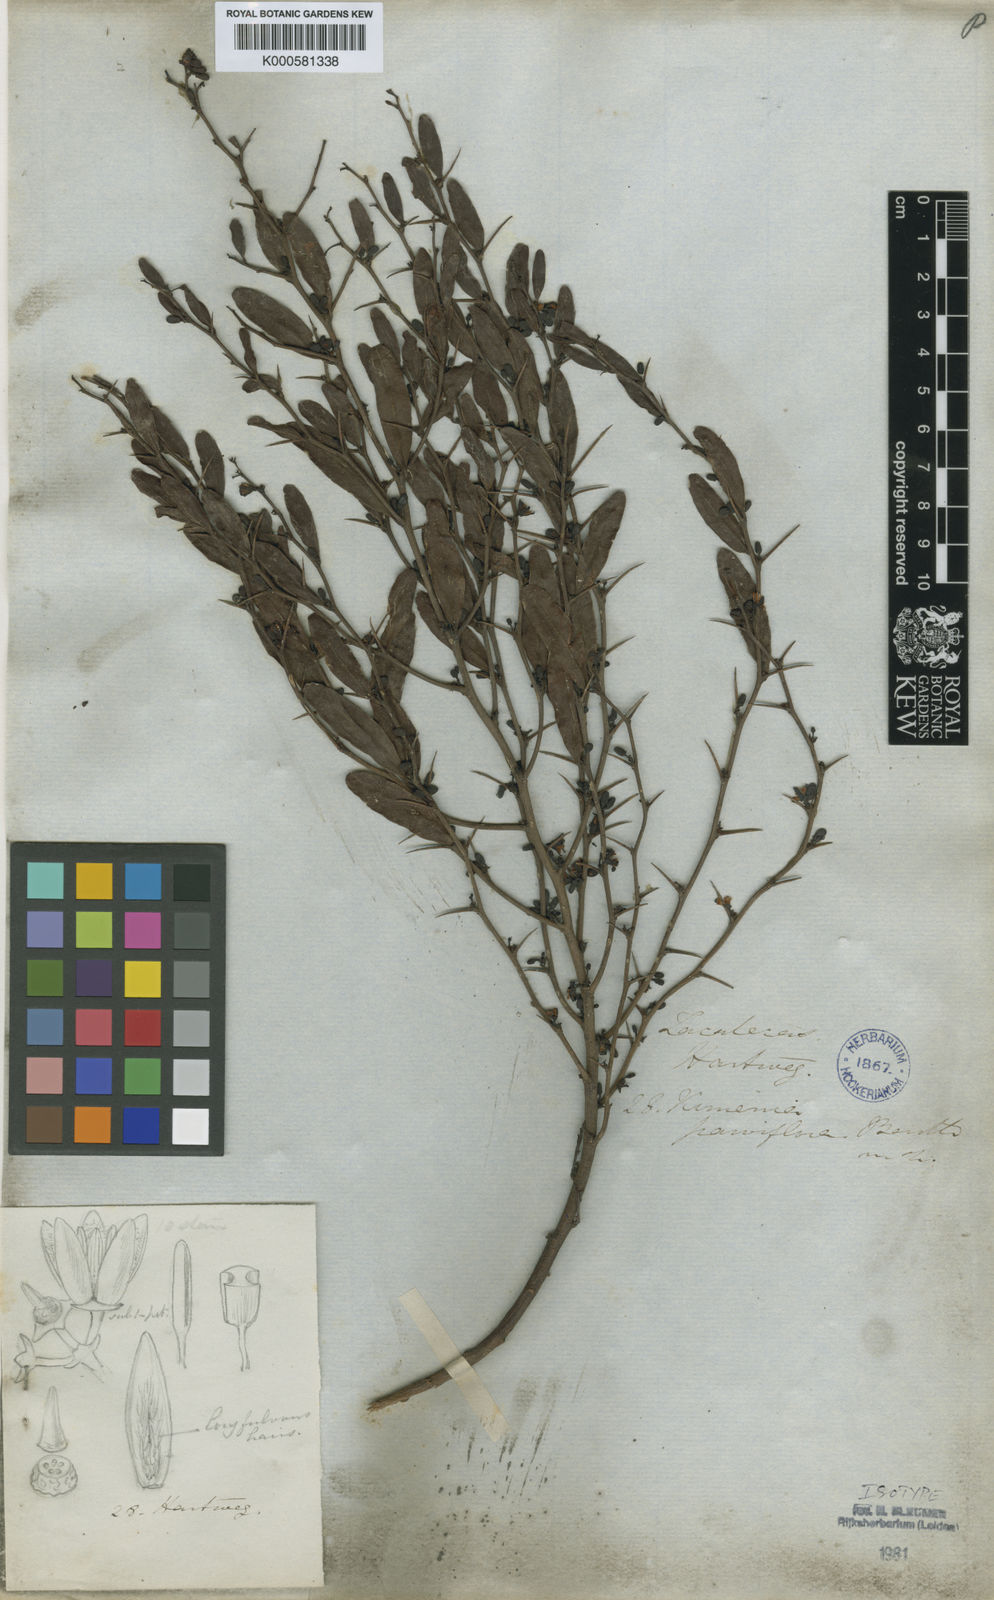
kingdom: Plantae
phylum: Tracheophyta
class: Magnoliopsida
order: Santalales
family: Ximeniaceae
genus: Ximenia
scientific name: Ximenia parviflora
